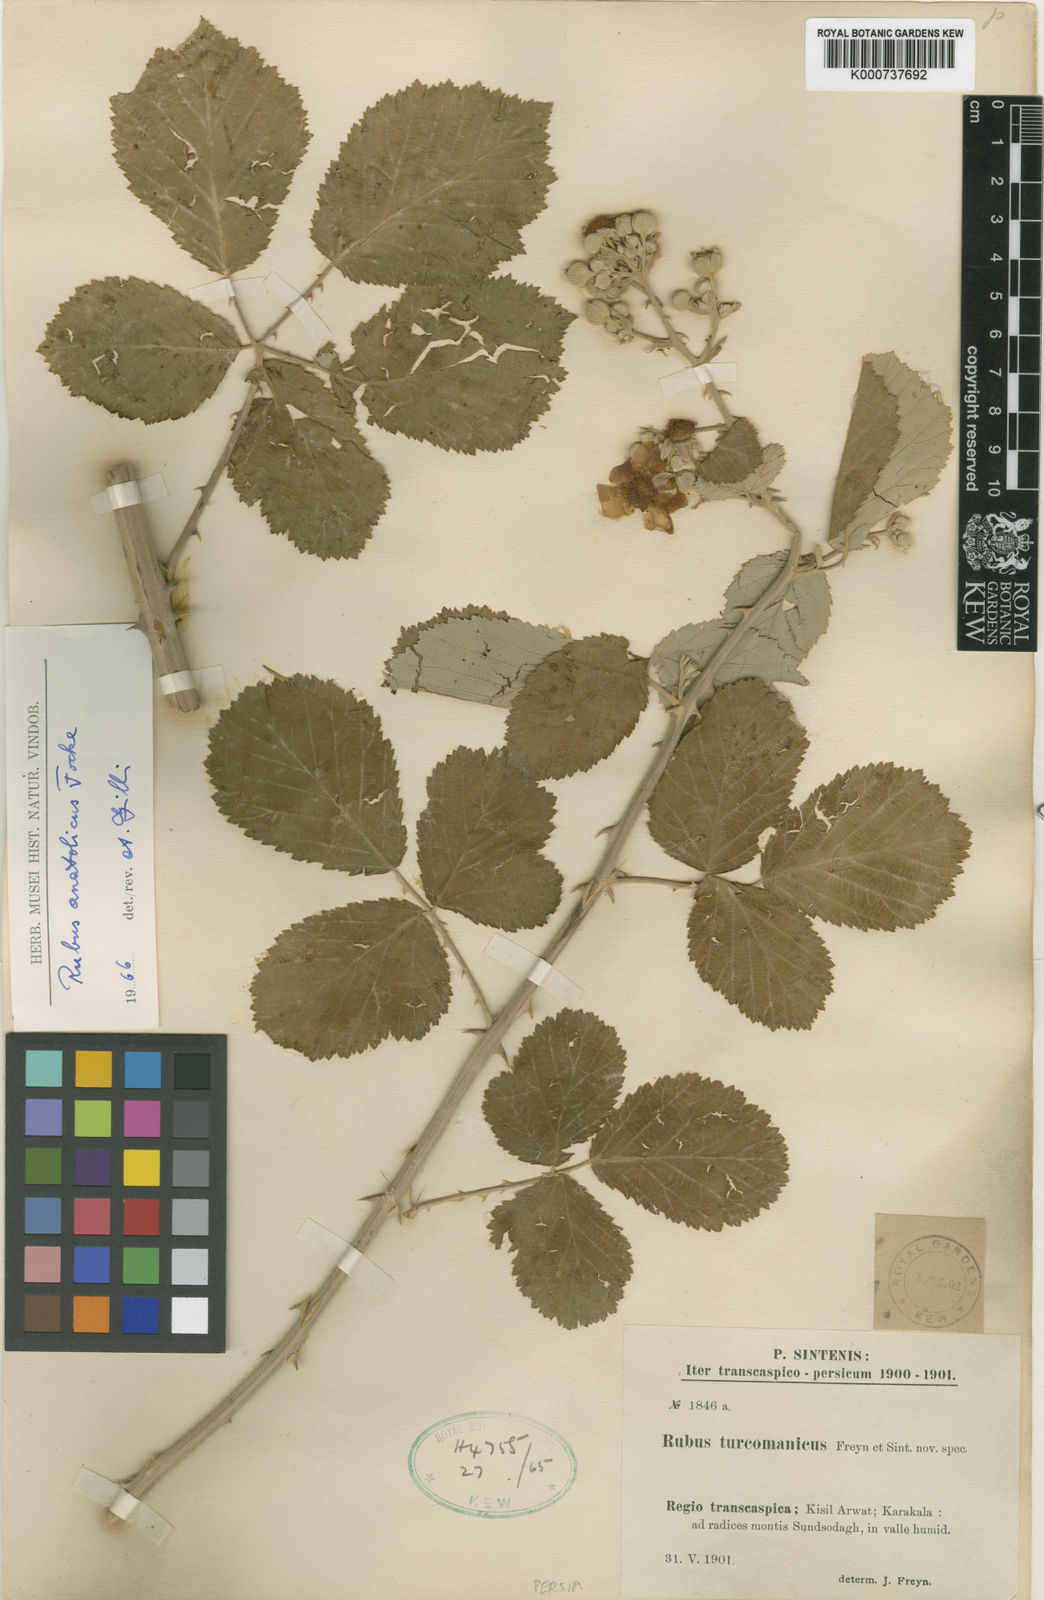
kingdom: Plantae
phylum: Tracheophyta
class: Magnoliopsida
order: Rosales
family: Rosaceae
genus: Rubus
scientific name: Rubus sanctus
